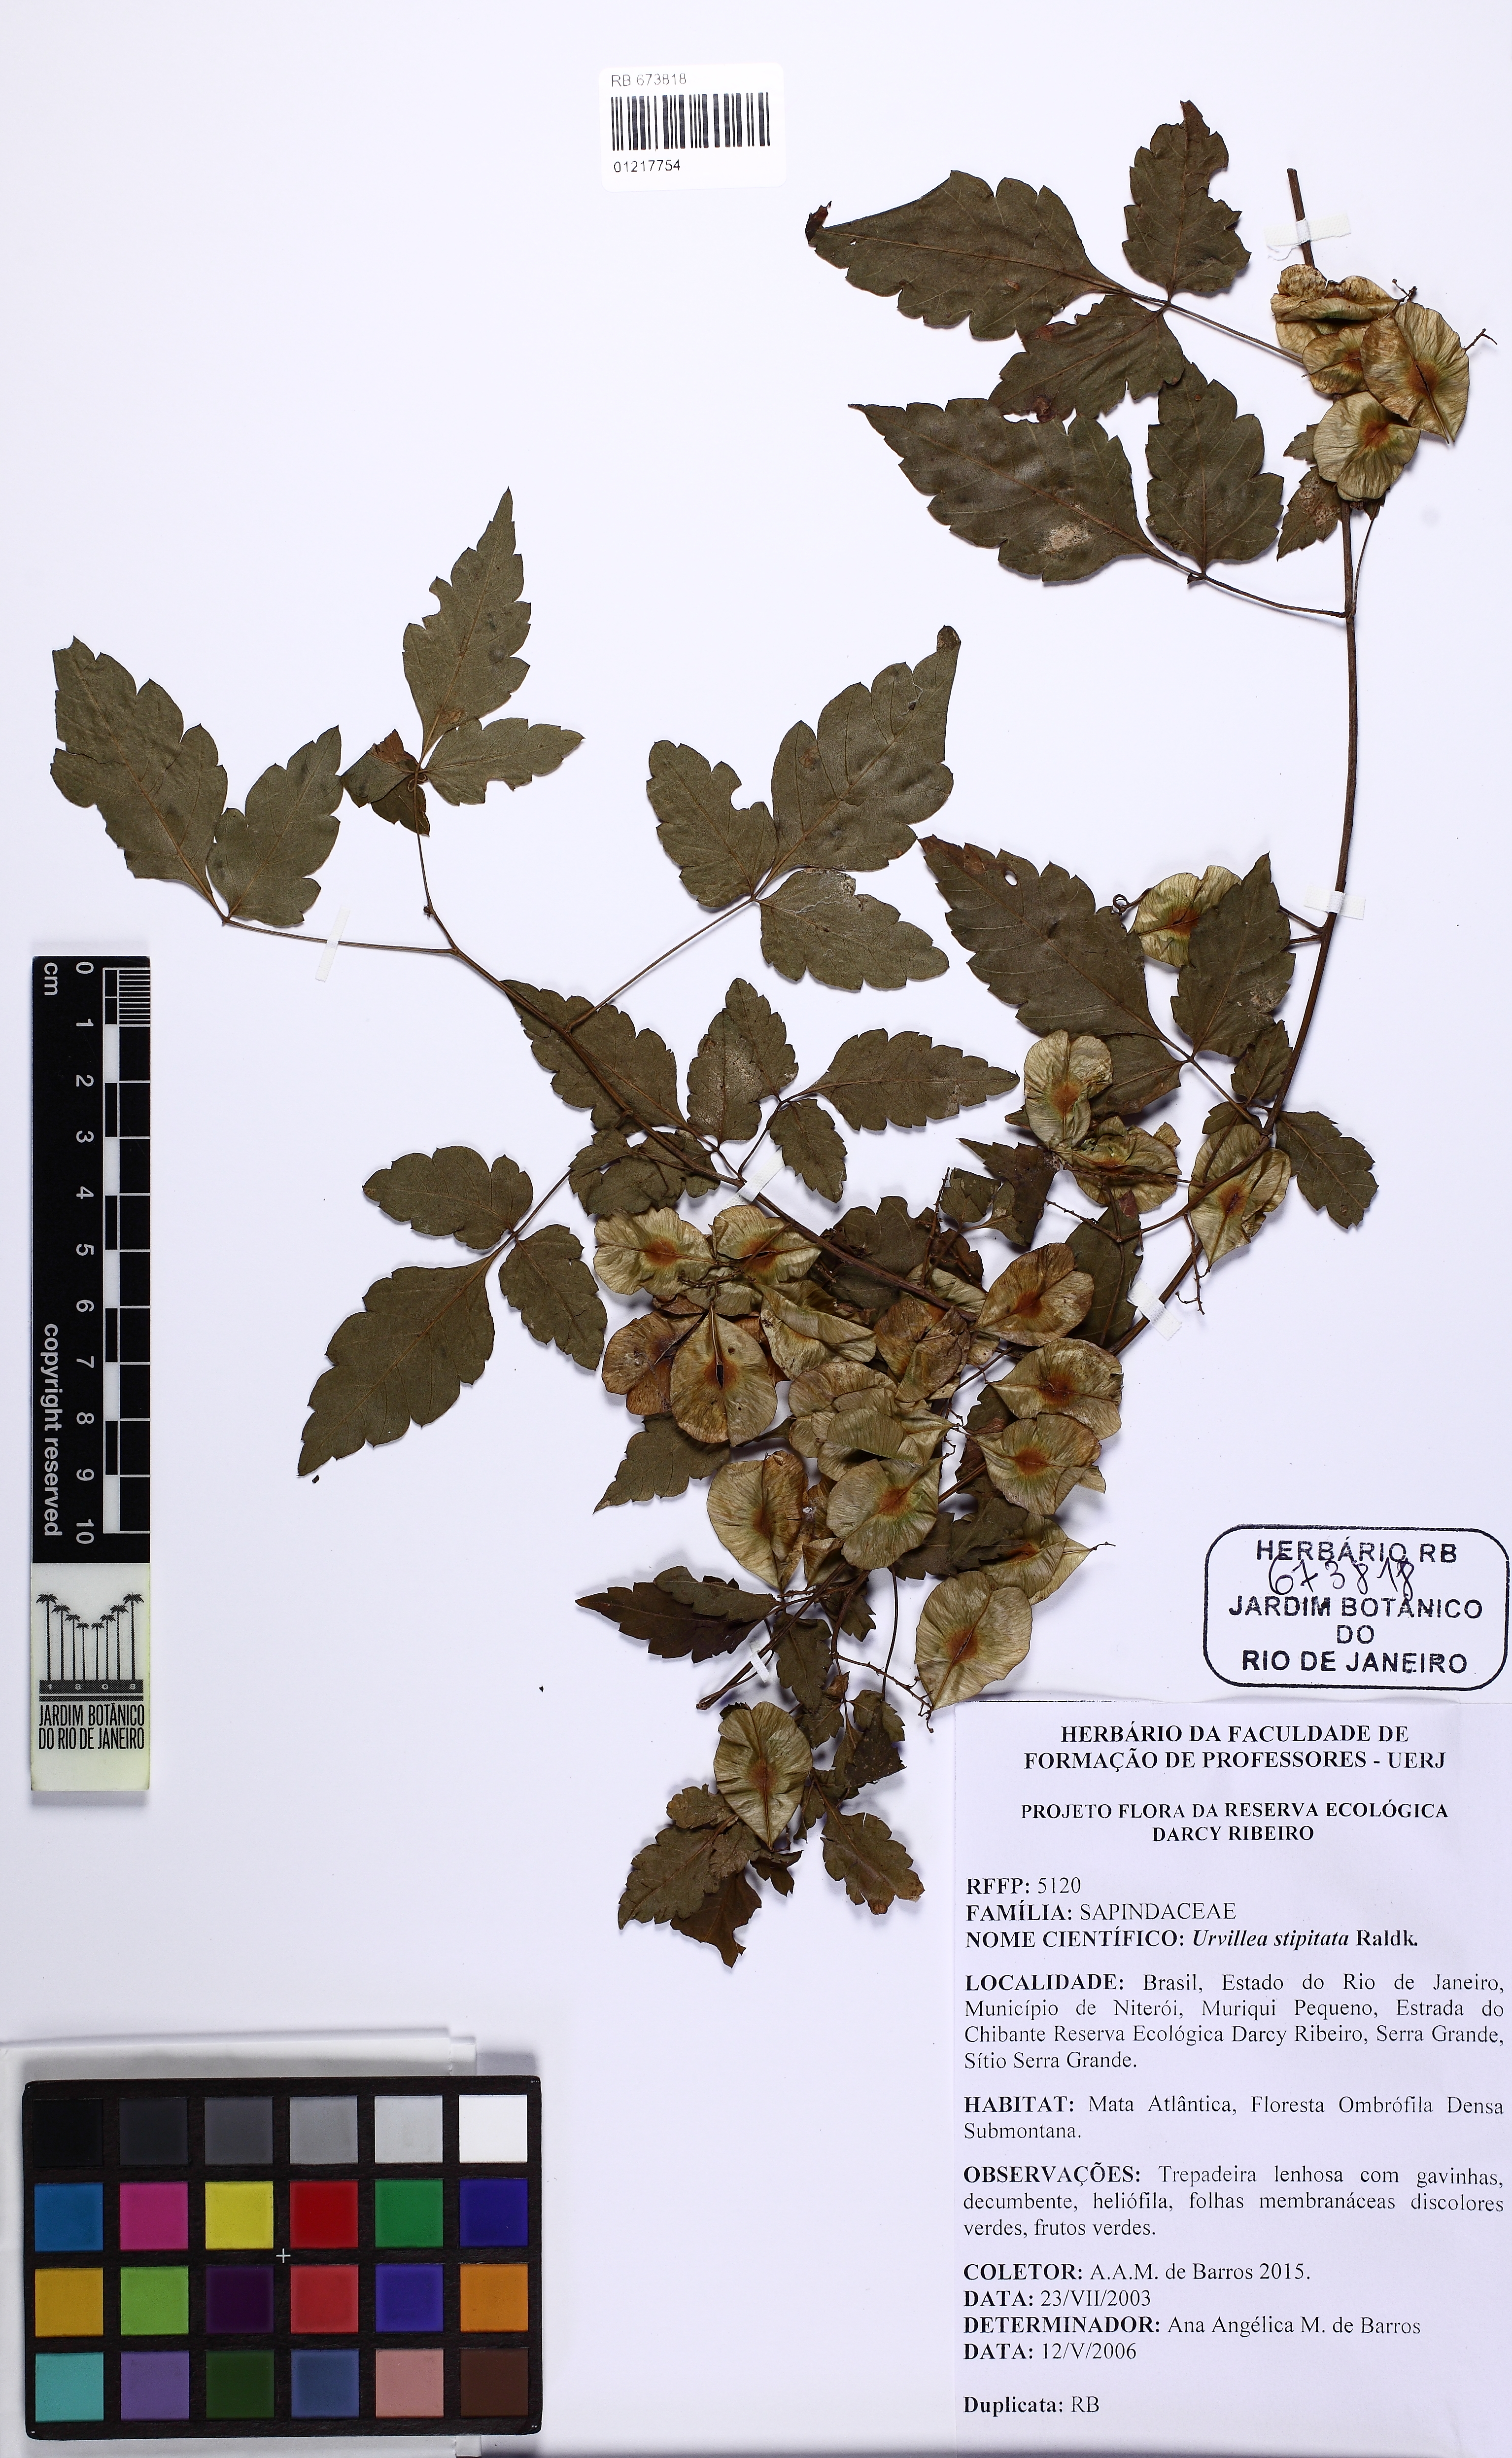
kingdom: Plantae
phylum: Tracheophyta
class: Magnoliopsida
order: Sapindales
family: Sapindaceae
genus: Urvillea
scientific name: Urvillea stipitata
